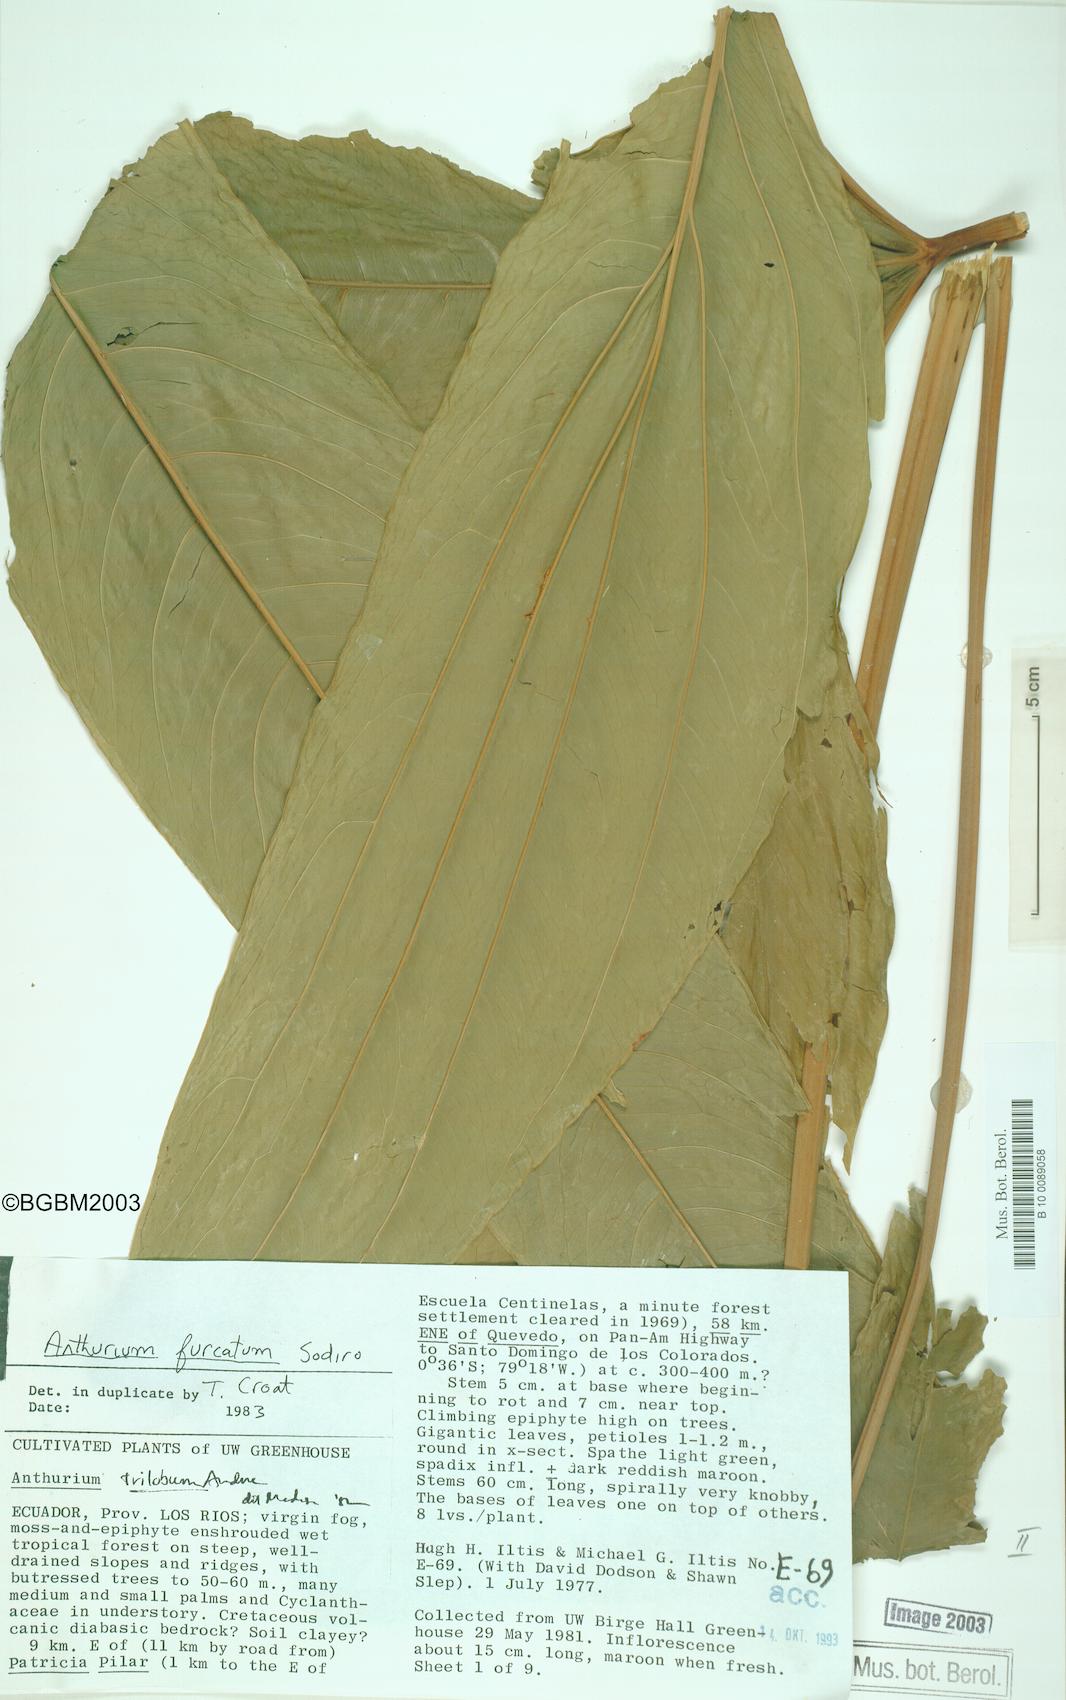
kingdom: Plantae
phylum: Tracheophyta
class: Liliopsida
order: Alismatales
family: Araceae
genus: Anthurium
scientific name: Anthurium furcatum
